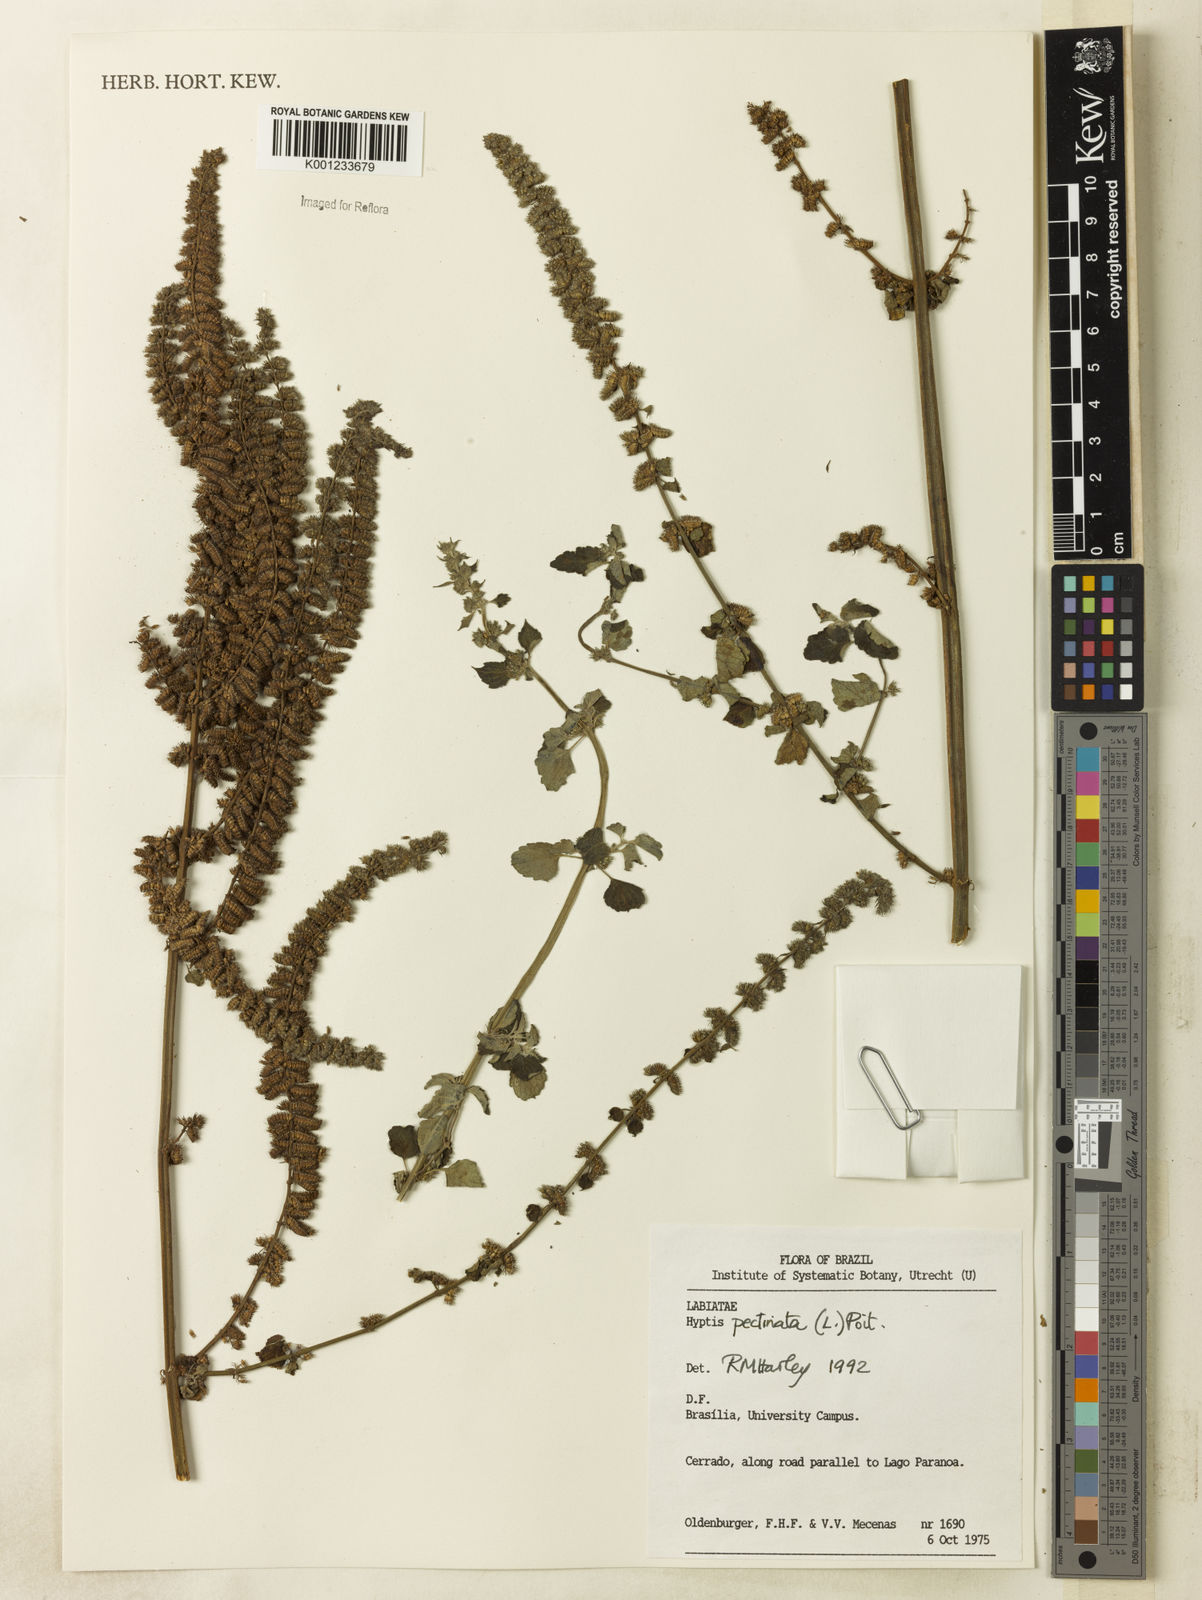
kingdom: Plantae
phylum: Tracheophyta
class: Magnoliopsida
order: Lamiales
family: Lamiaceae
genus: Mesosphaerum
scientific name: Mesosphaerum pectinatum
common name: Comb hyptis
